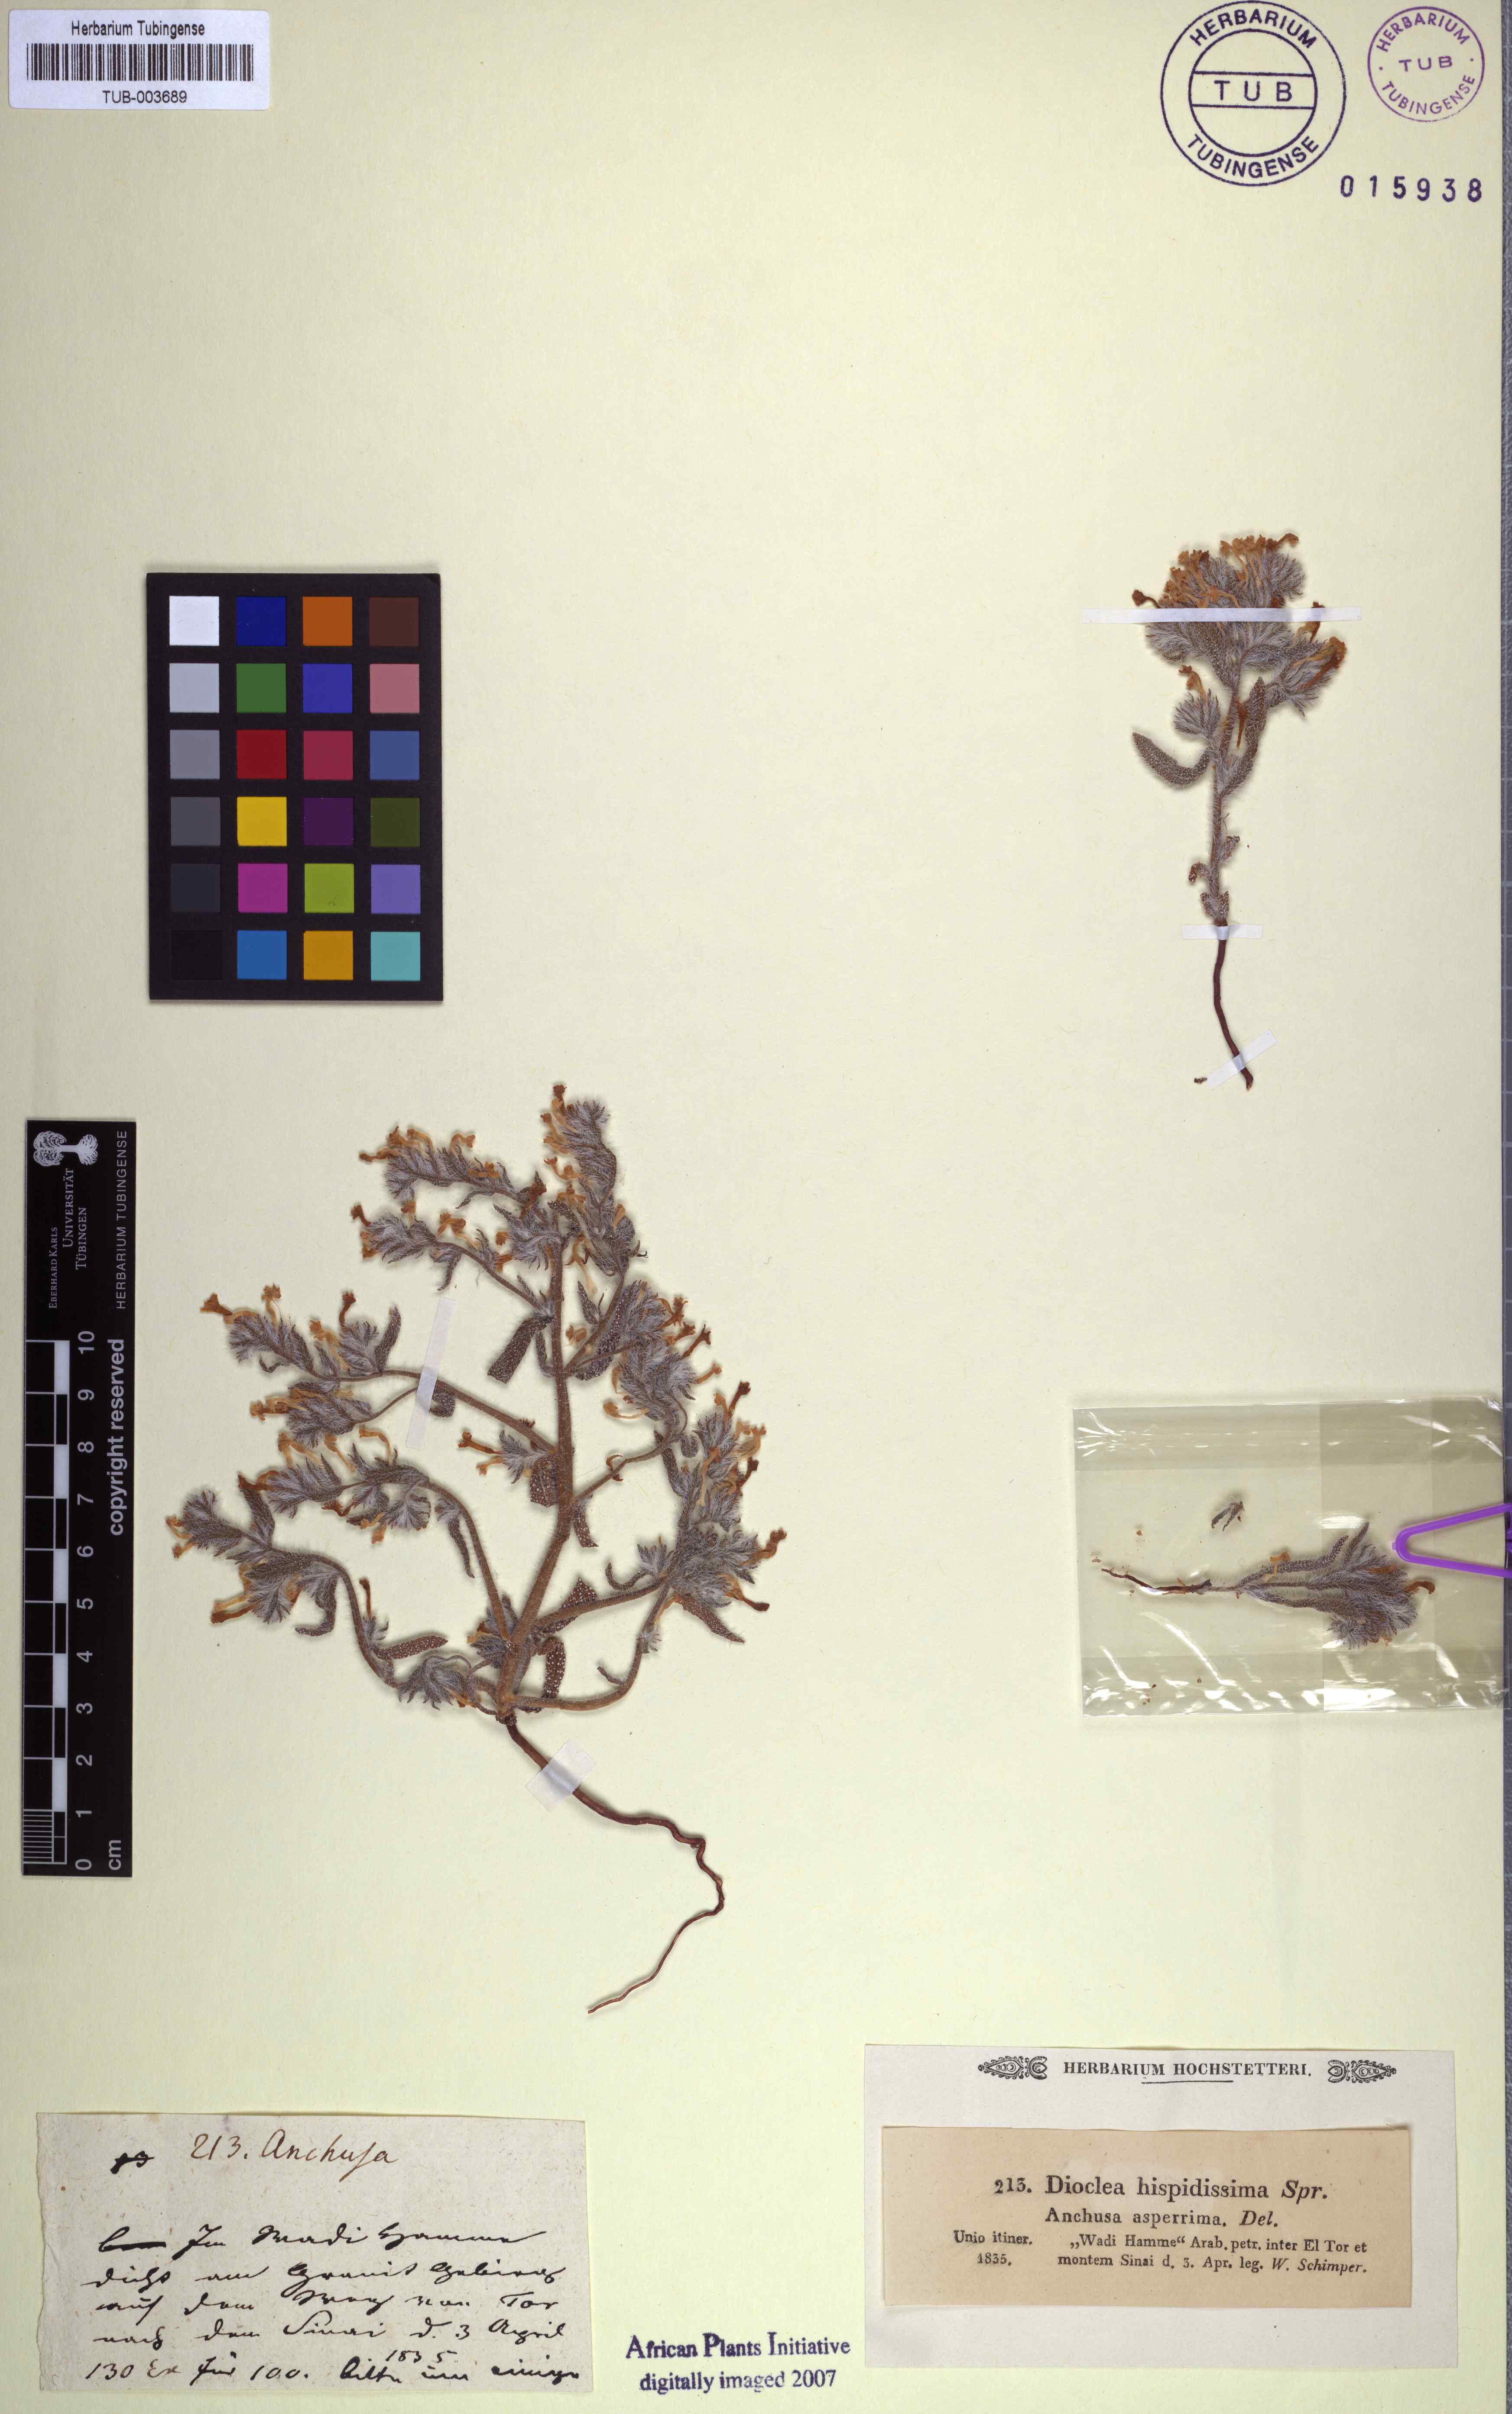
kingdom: Plantae
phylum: Tracheophyta
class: Magnoliopsida
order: Boraginales
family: Boraginaceae
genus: Arnebia
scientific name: Arnebia hispidissima
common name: Arabian-primrose
